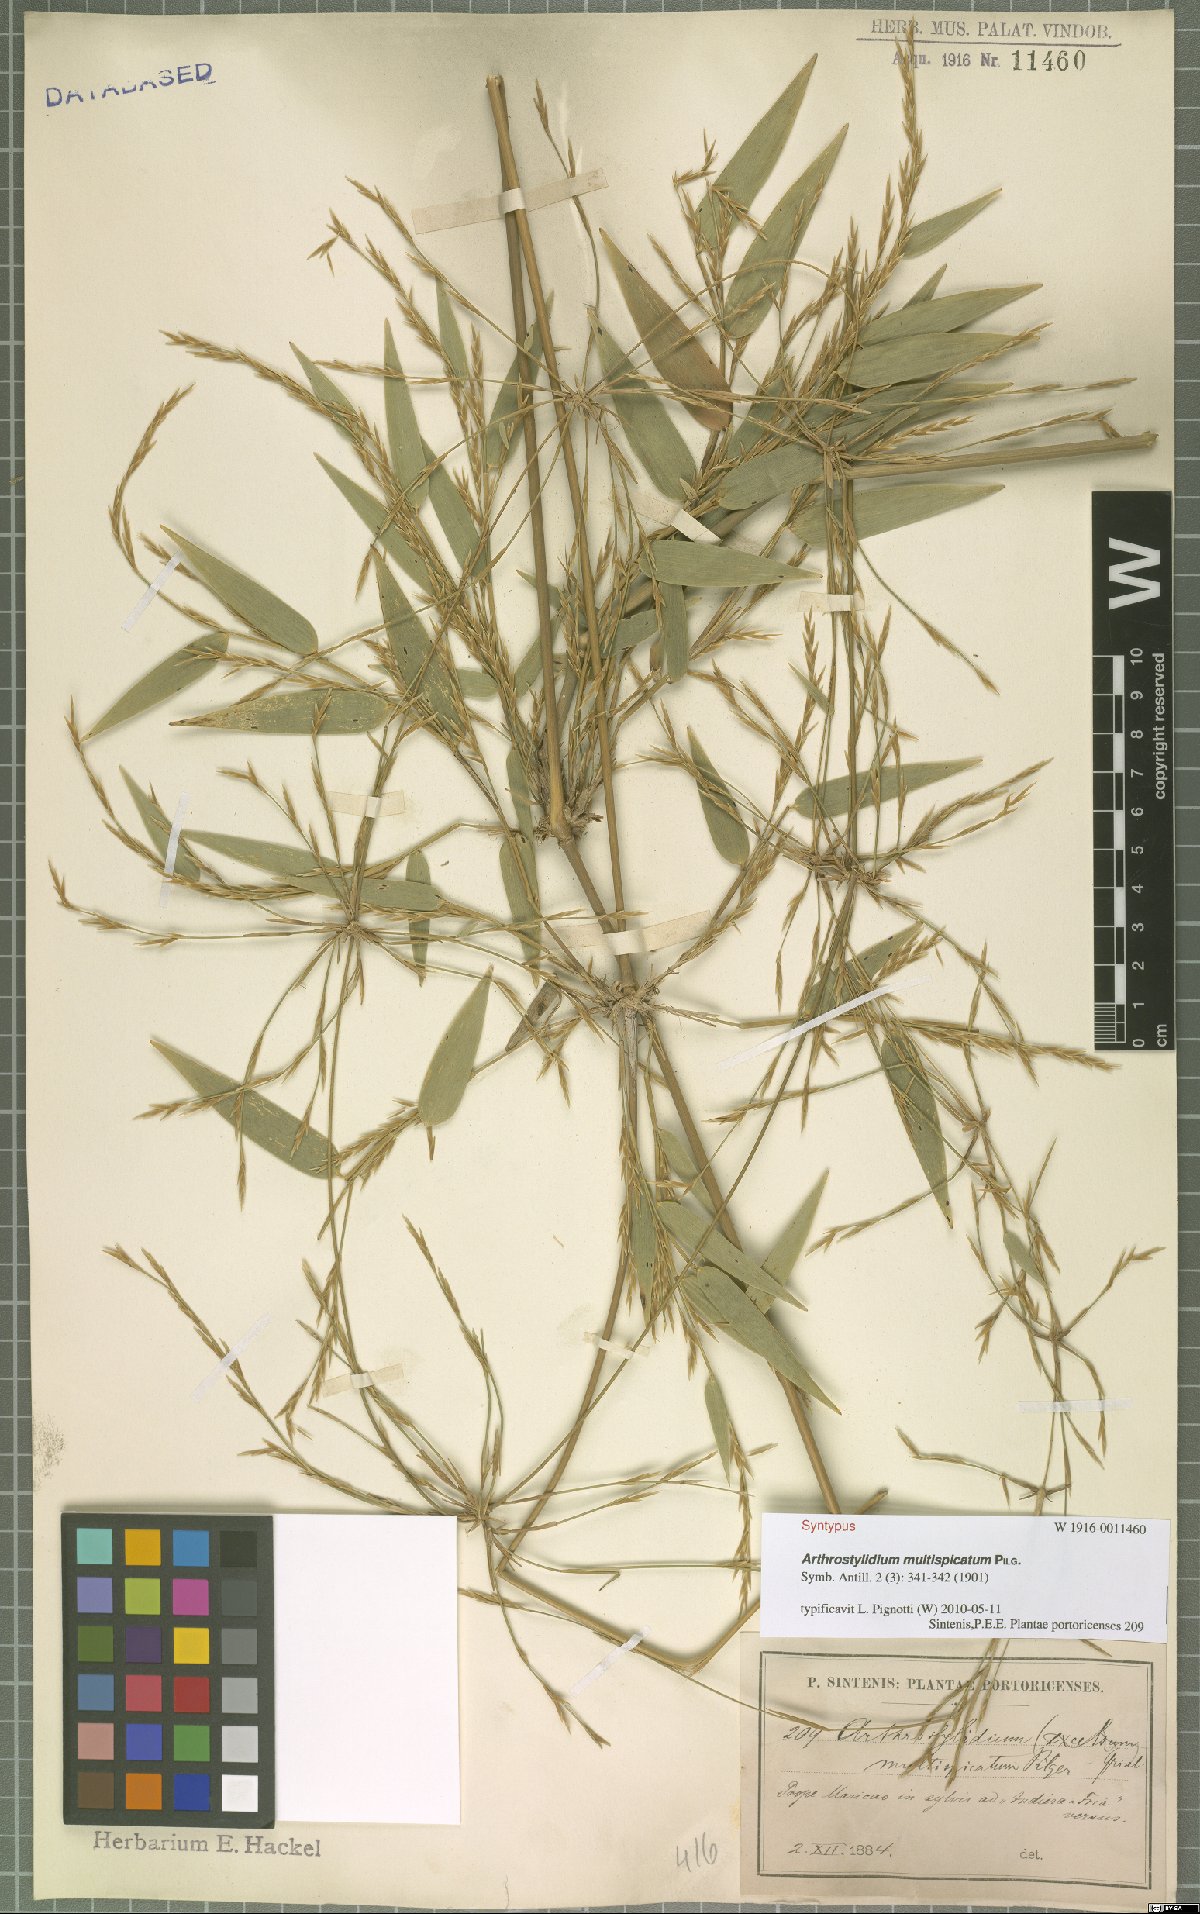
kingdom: Plantae
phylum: Tracheophyta
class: Liliopsida
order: Poales
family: Poaceae
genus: Arthrostylidium
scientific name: Arthrostylidium multispicatum
